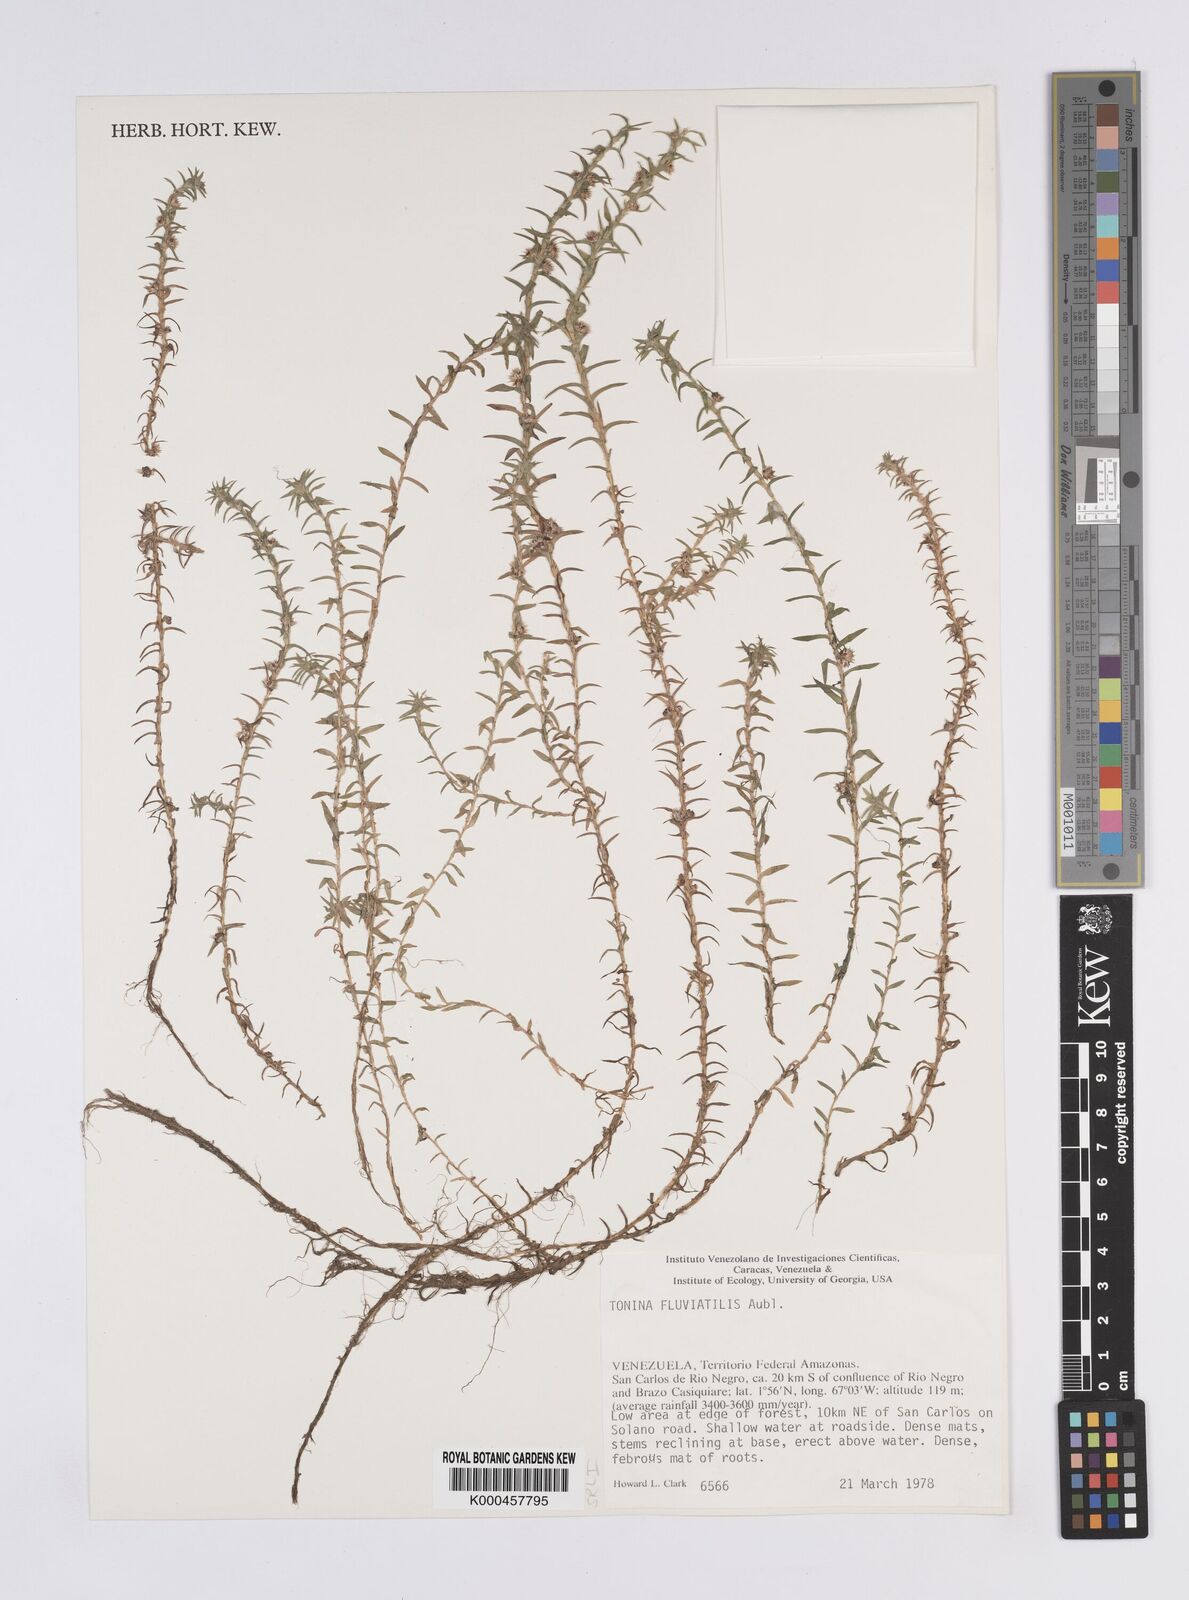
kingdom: Plantae
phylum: Tracheophyta
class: Liliopsida
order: Poales
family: Eriocaulaceae
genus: Paepalanthus
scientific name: Paepalanthus fluviatilis
